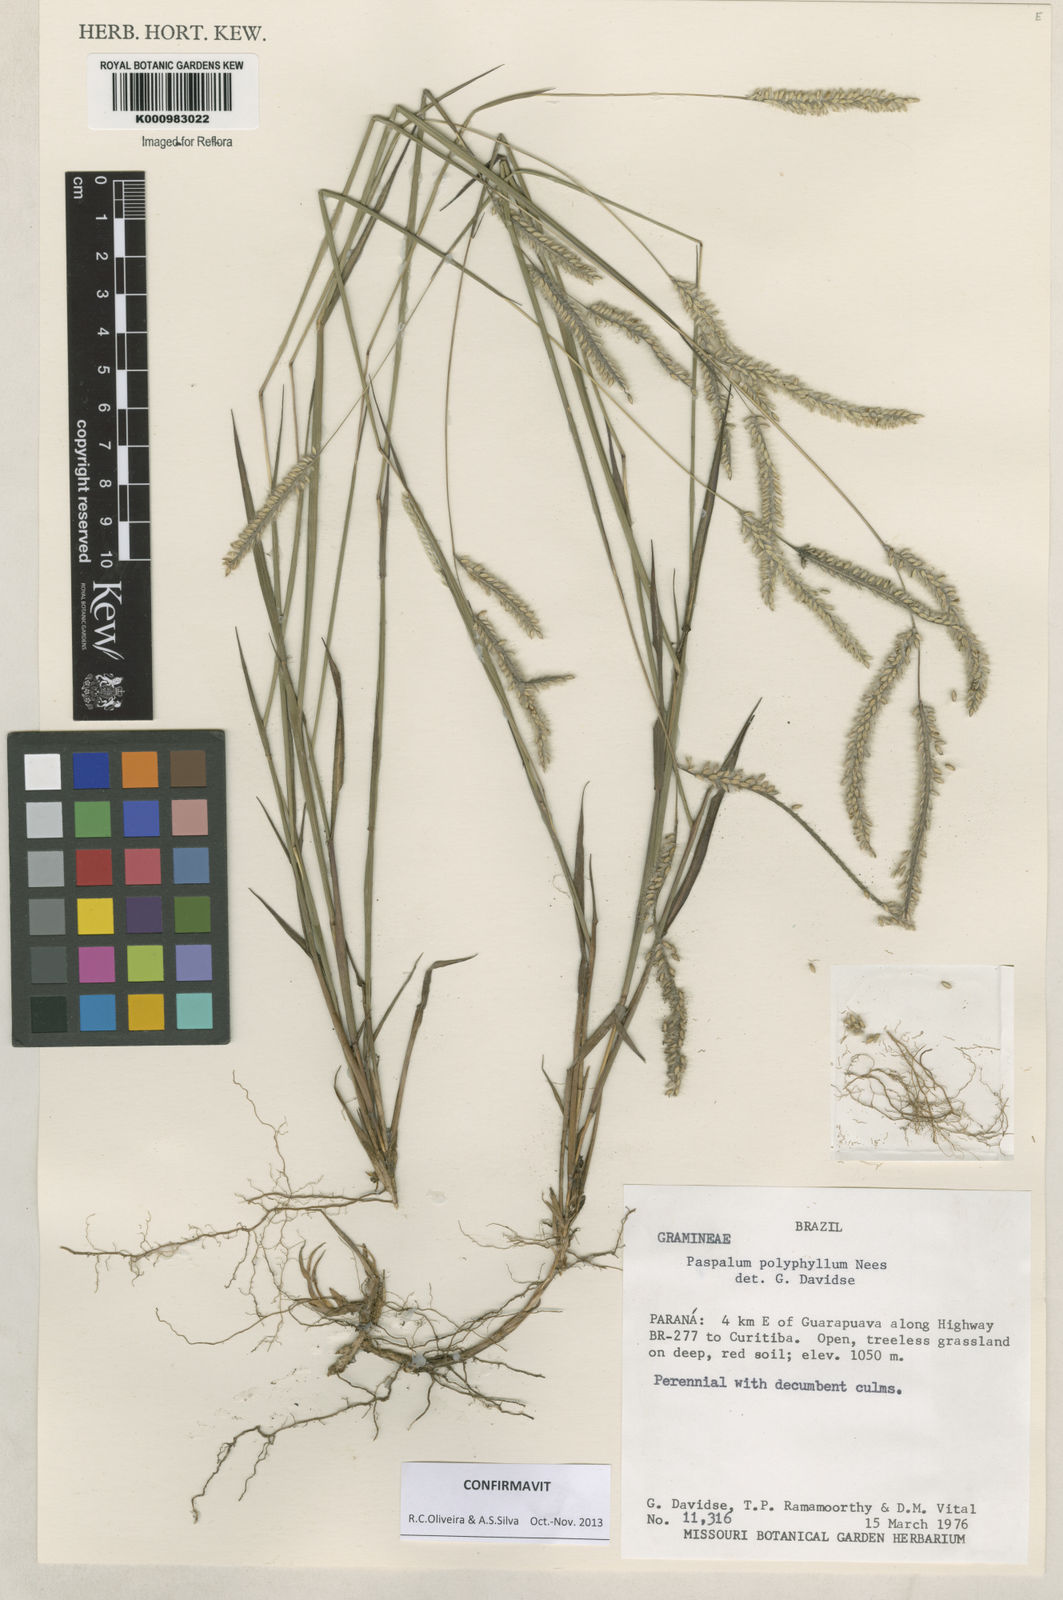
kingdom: Plantae
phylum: Tracheophyta
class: Liliopsida
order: Poales
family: Poaceae
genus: Paspalum
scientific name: Paspalum
